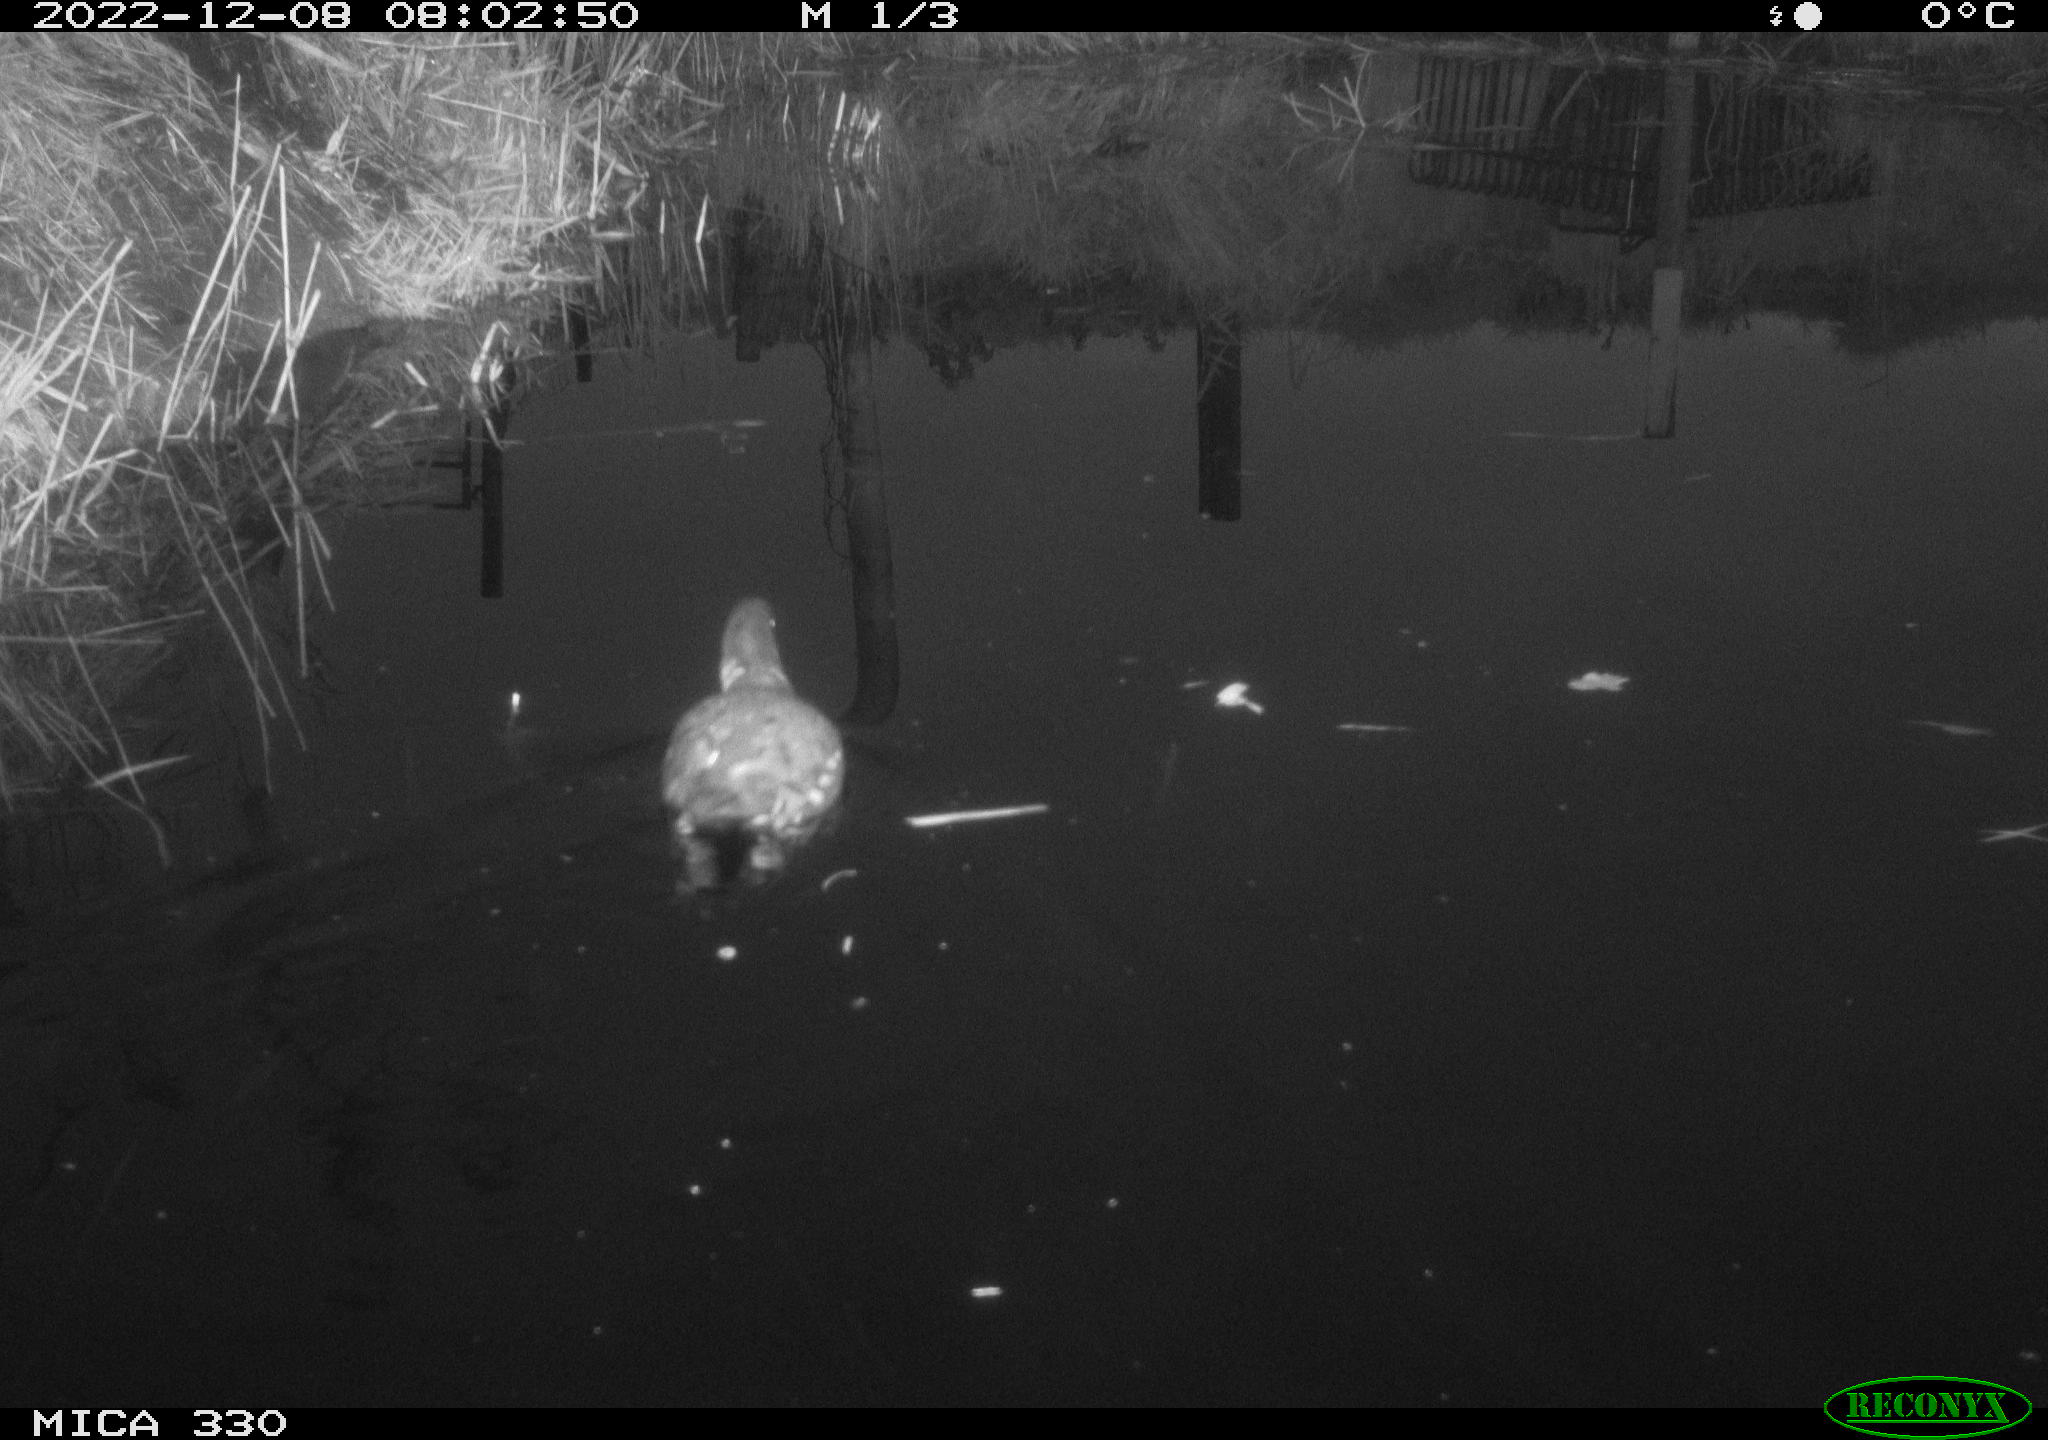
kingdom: Animalia
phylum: Chordata
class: Aves
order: Gruiformes
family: Rallidae
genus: Gallinula
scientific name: Gallinula chloropus
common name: Common moorhen
